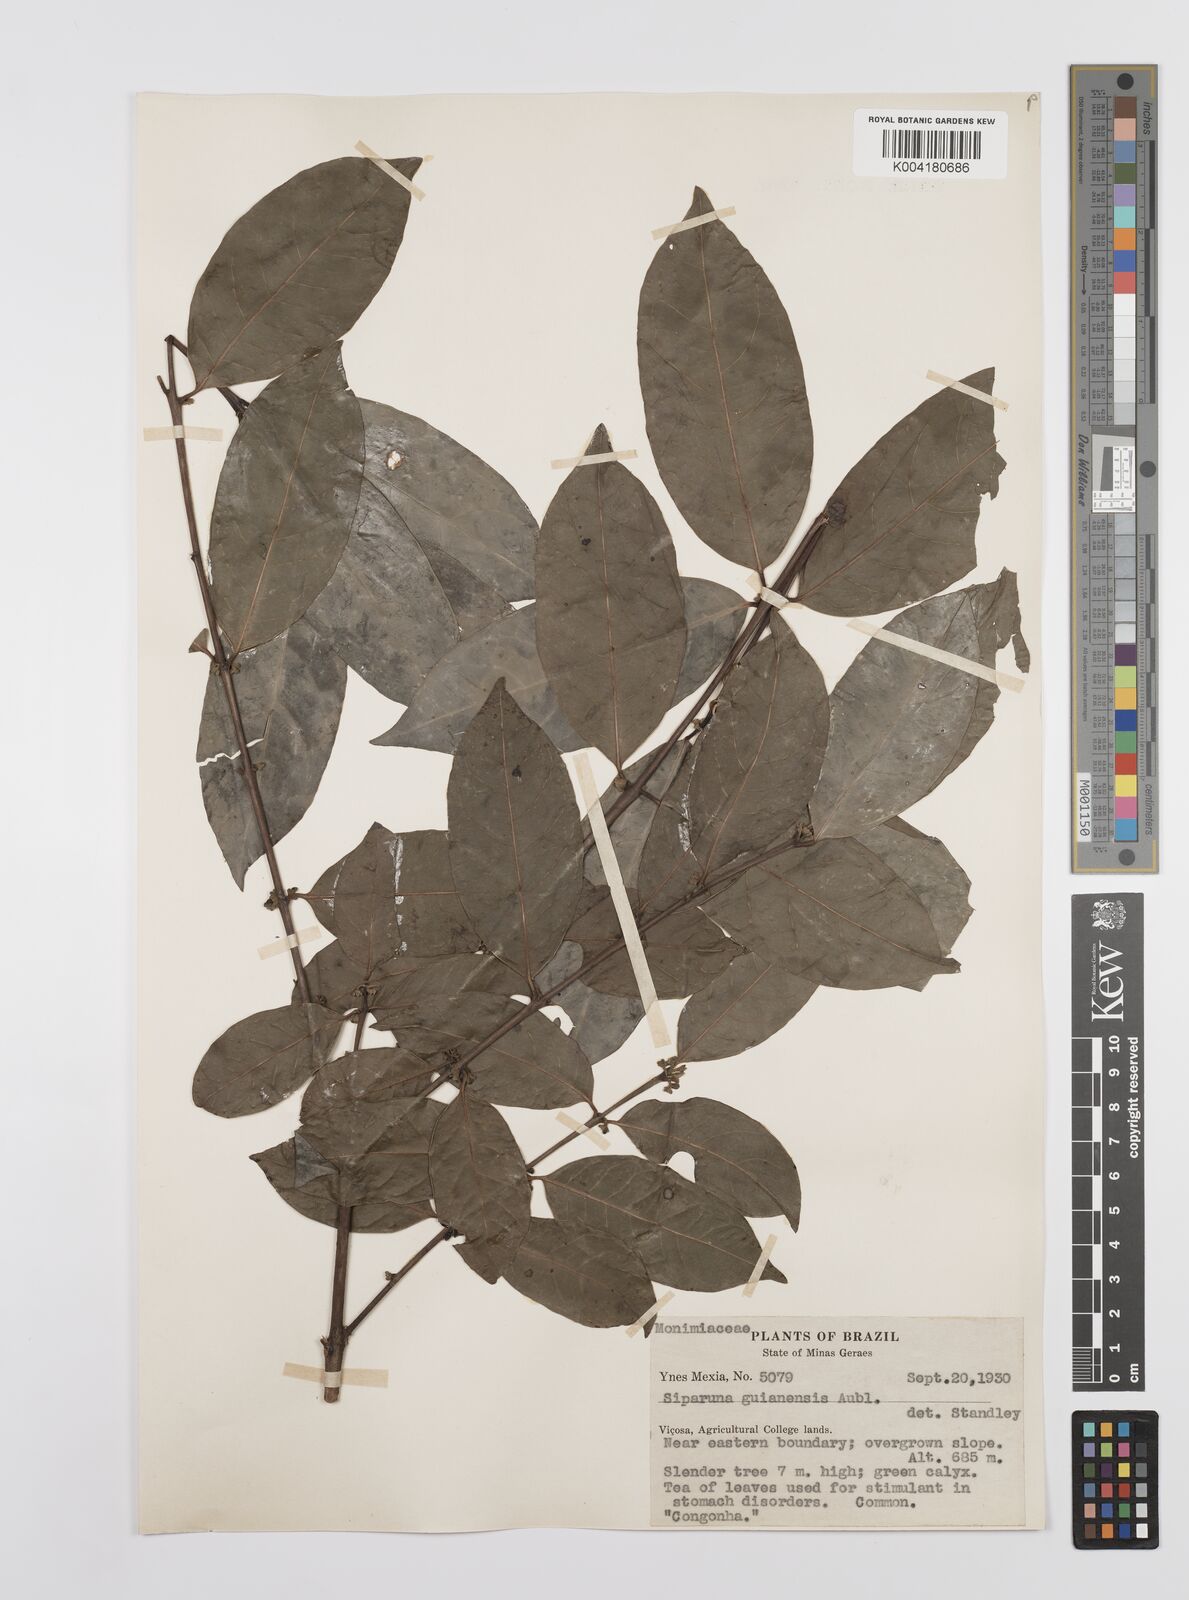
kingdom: Plantae
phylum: Tracheophyta
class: Magnoliopsida
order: Laurales
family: Siparunaceae
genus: Siparuna
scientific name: Siparuna guianensis
